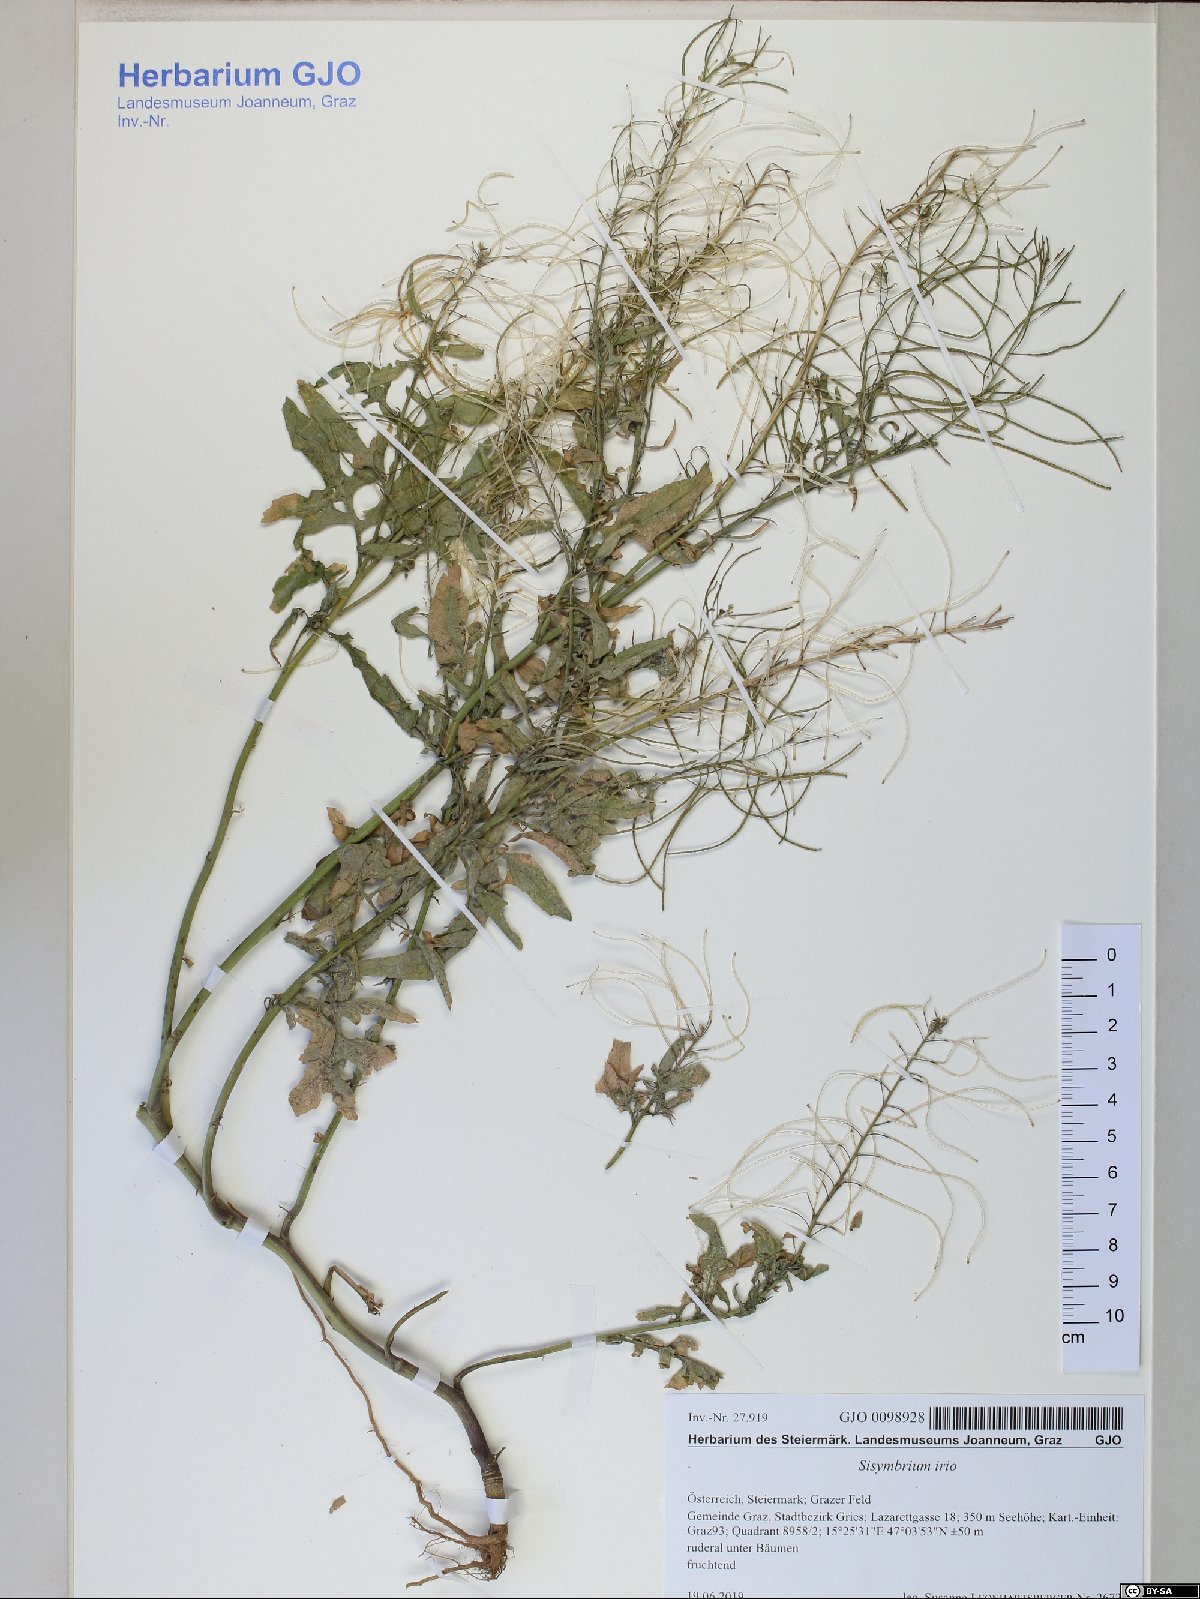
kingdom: Plantae
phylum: Tracheophyta
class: Magnoliopsida
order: Brassicales
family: Brassicaceae
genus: Sisymbrium
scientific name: Sisymbrium irio
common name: London rocket
